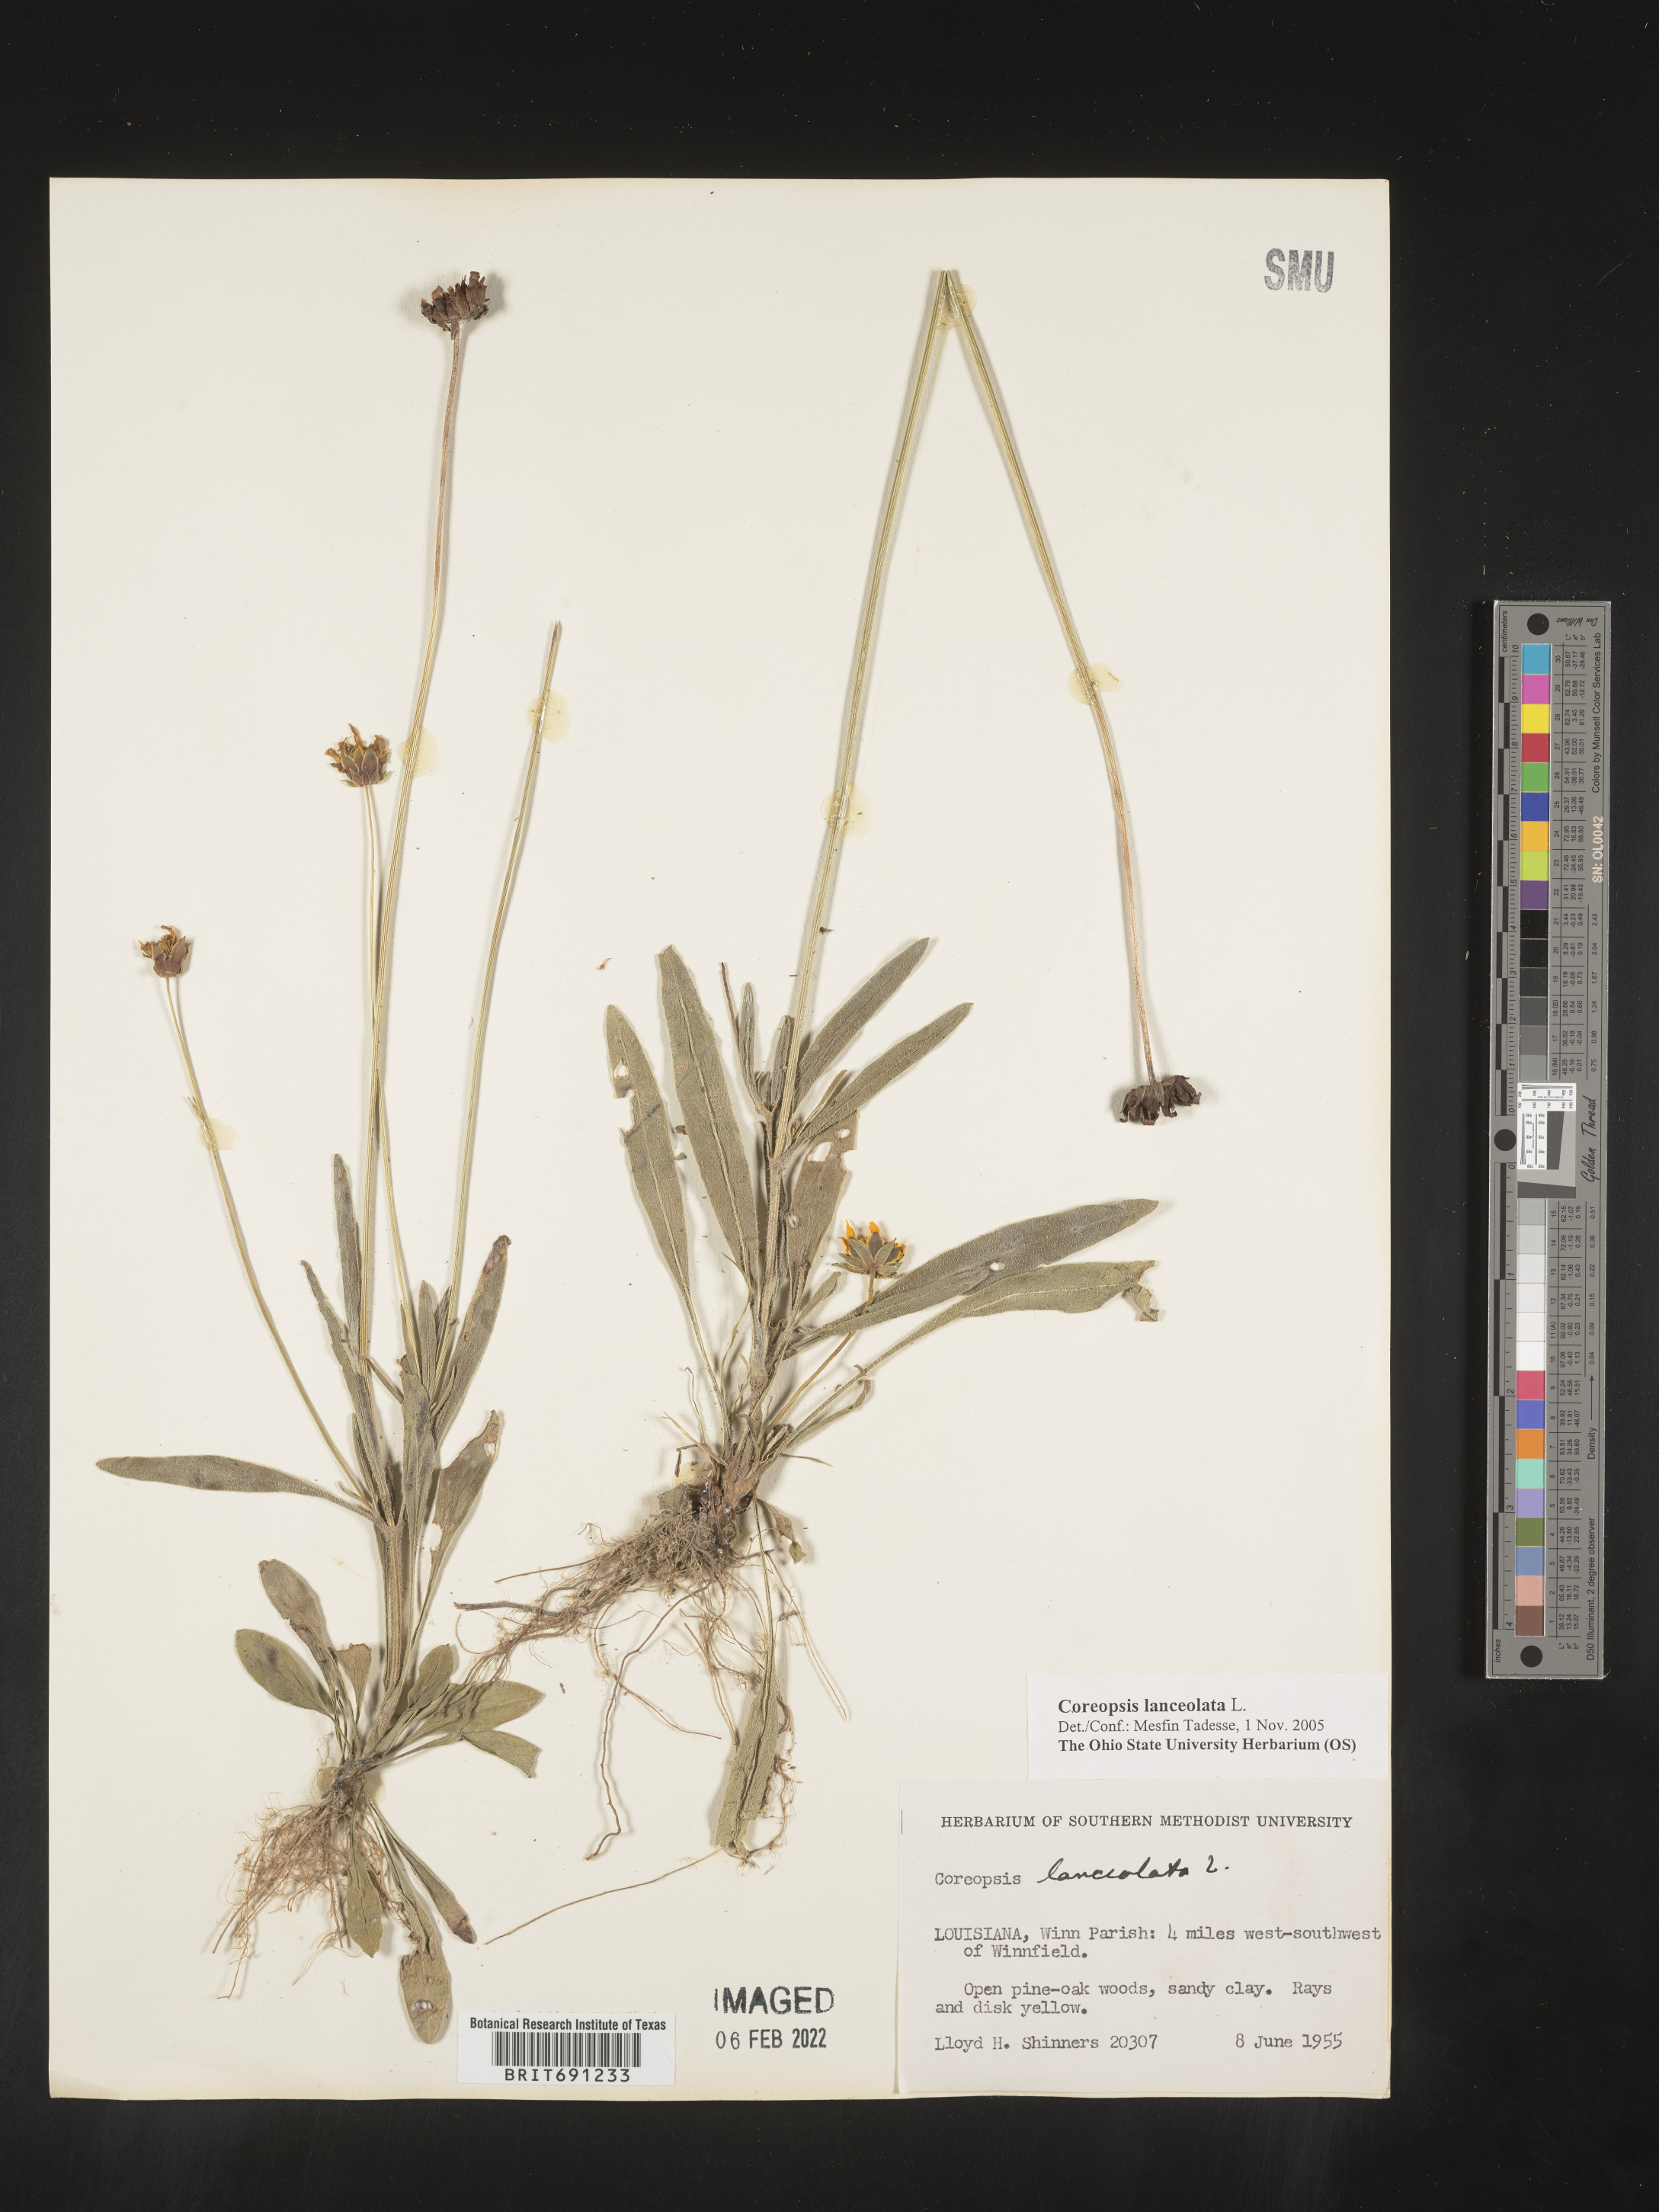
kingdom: Plantae
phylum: Tracheophyta
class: Magnoliopsida
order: Asterales
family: Asteraceae
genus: Coreopsis
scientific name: Coreopsis lanceolata
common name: Garden coreopsis
